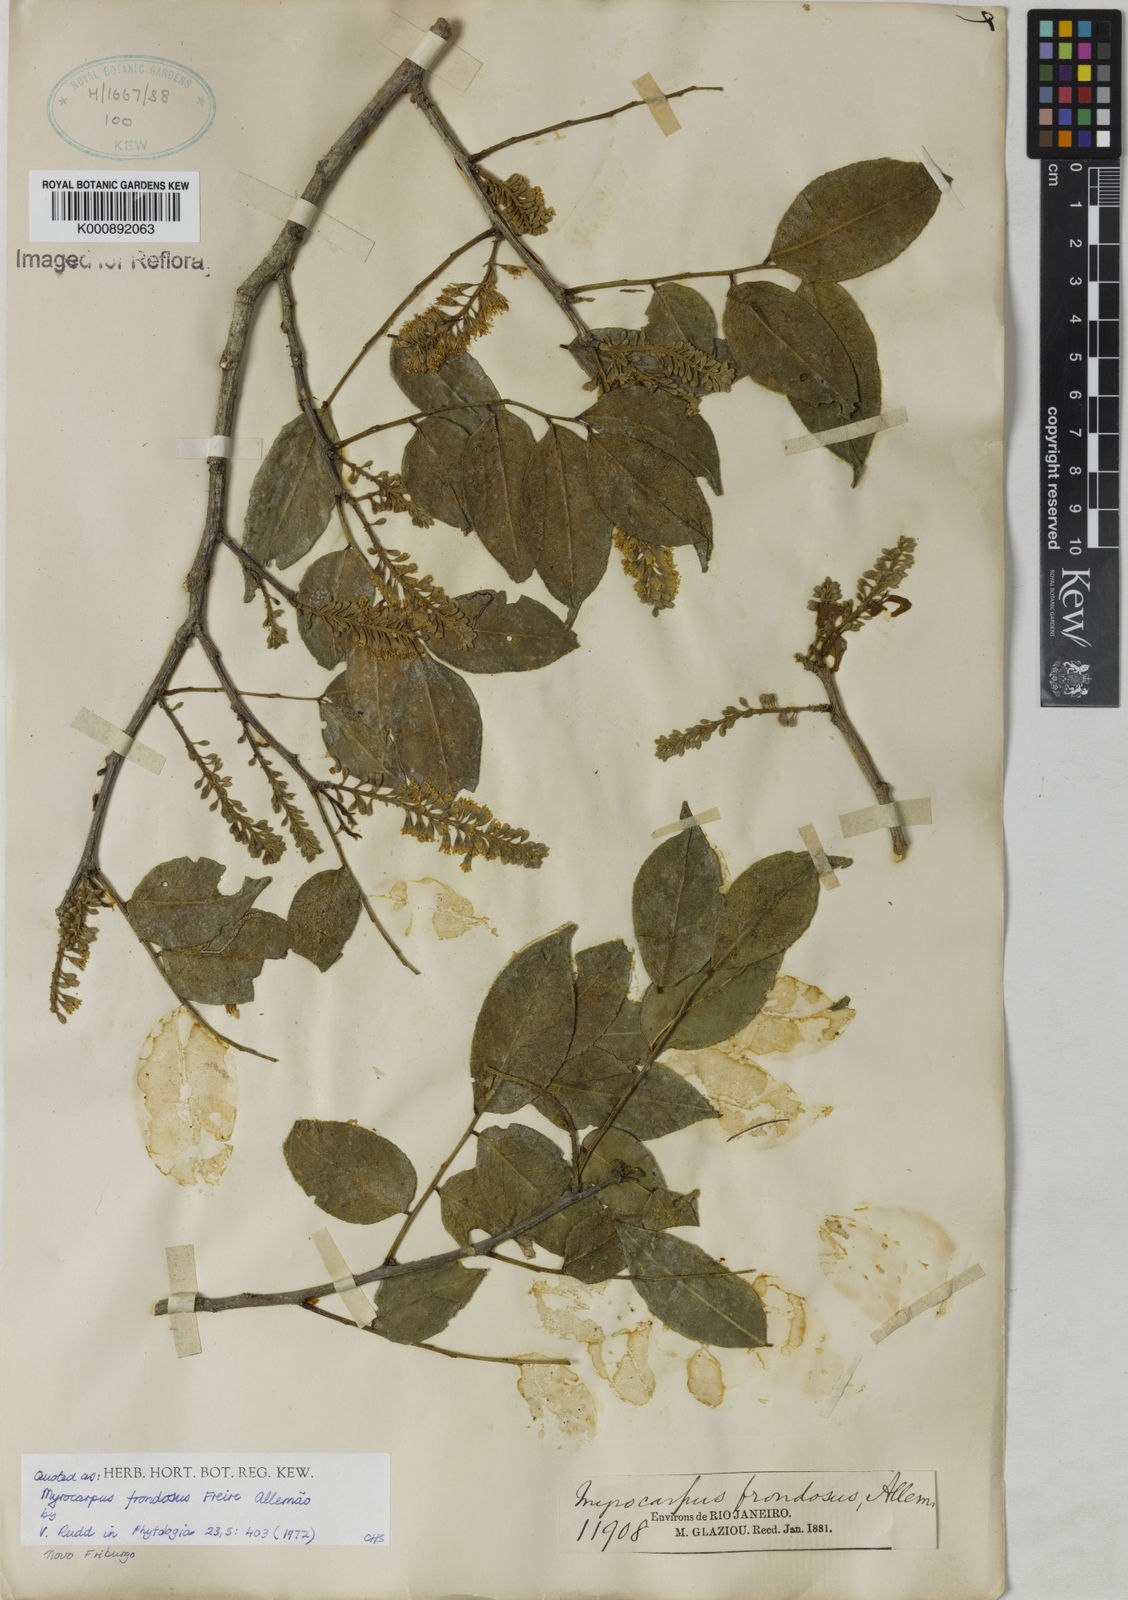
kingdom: Plantae
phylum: Tracheophyta
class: Magnoliopsida
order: Fabales
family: Fabaceae
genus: Myrocarpus
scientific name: Myrocarpus
